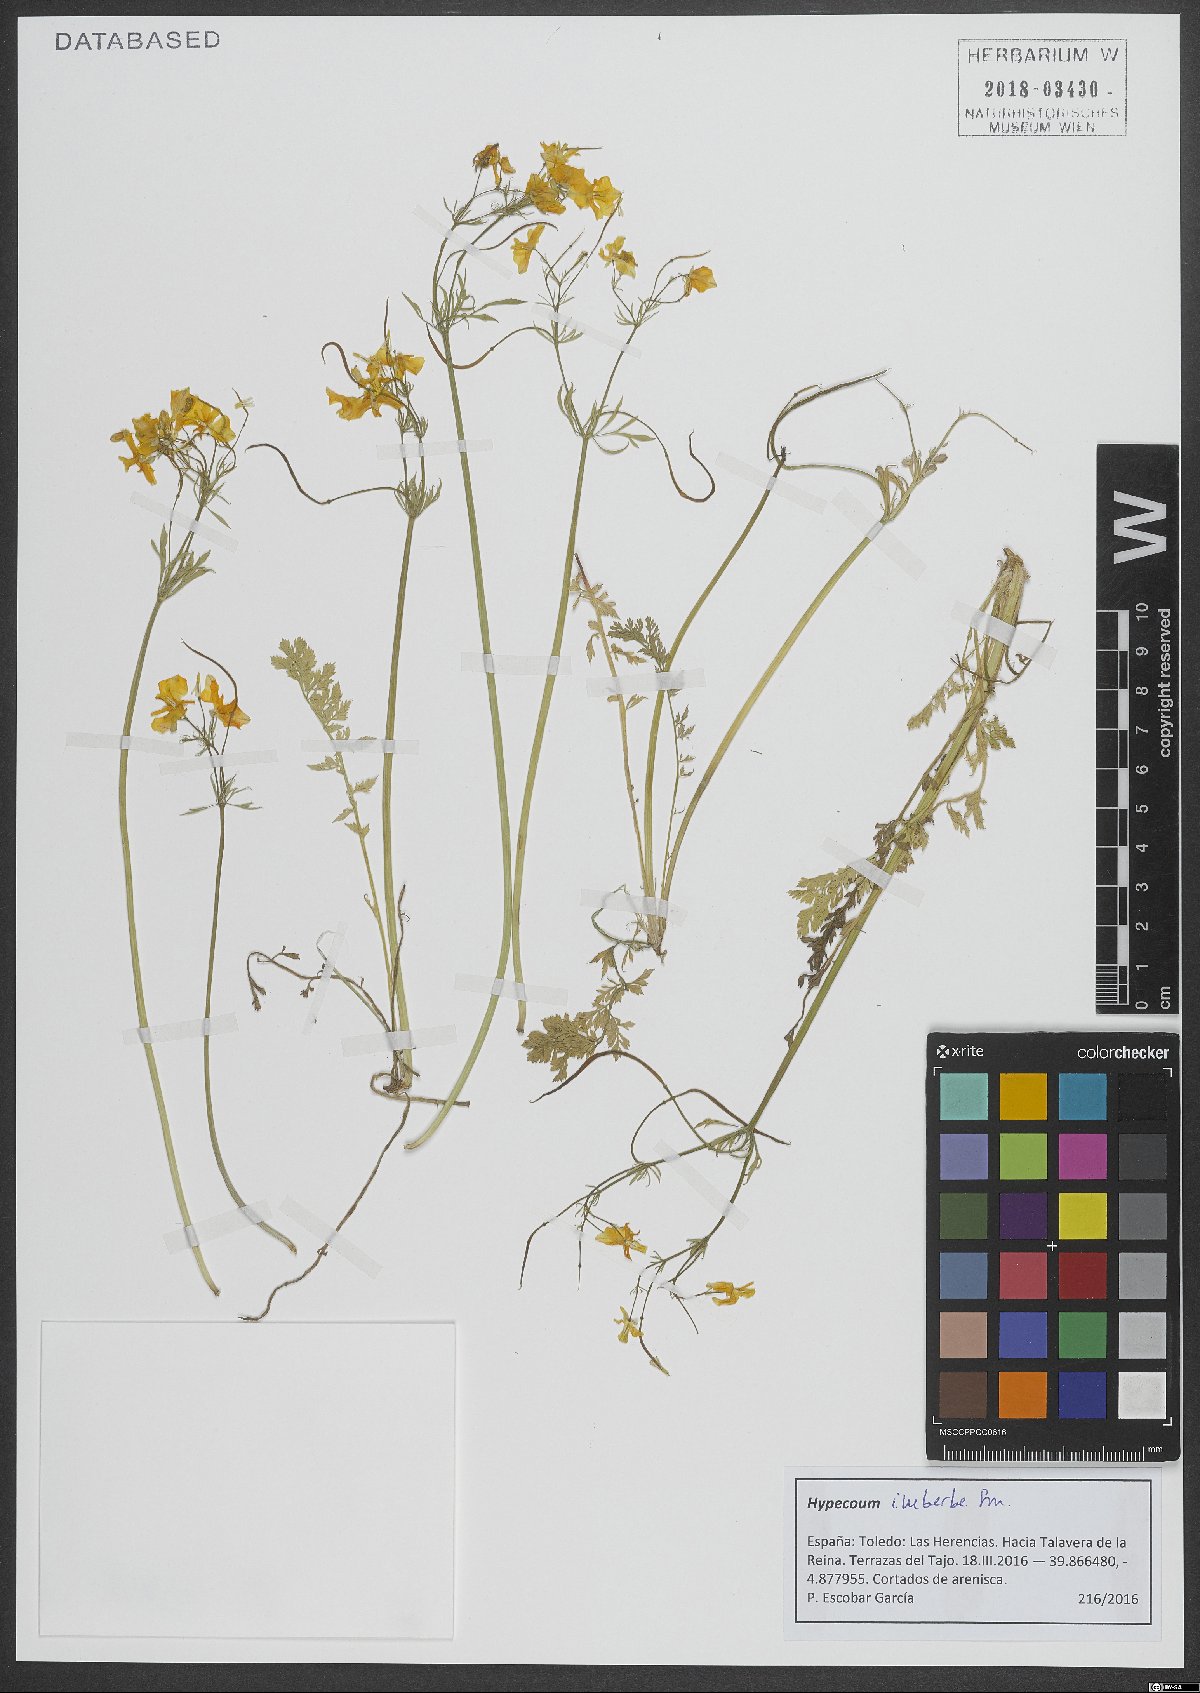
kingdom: Plantae
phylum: Tracheophyta
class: Magnoliopsida
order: Ranunculales
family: Papaveraceae
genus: Hypecoum
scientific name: Hypecoum imberbe
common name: Sicklefruit hypecoum
